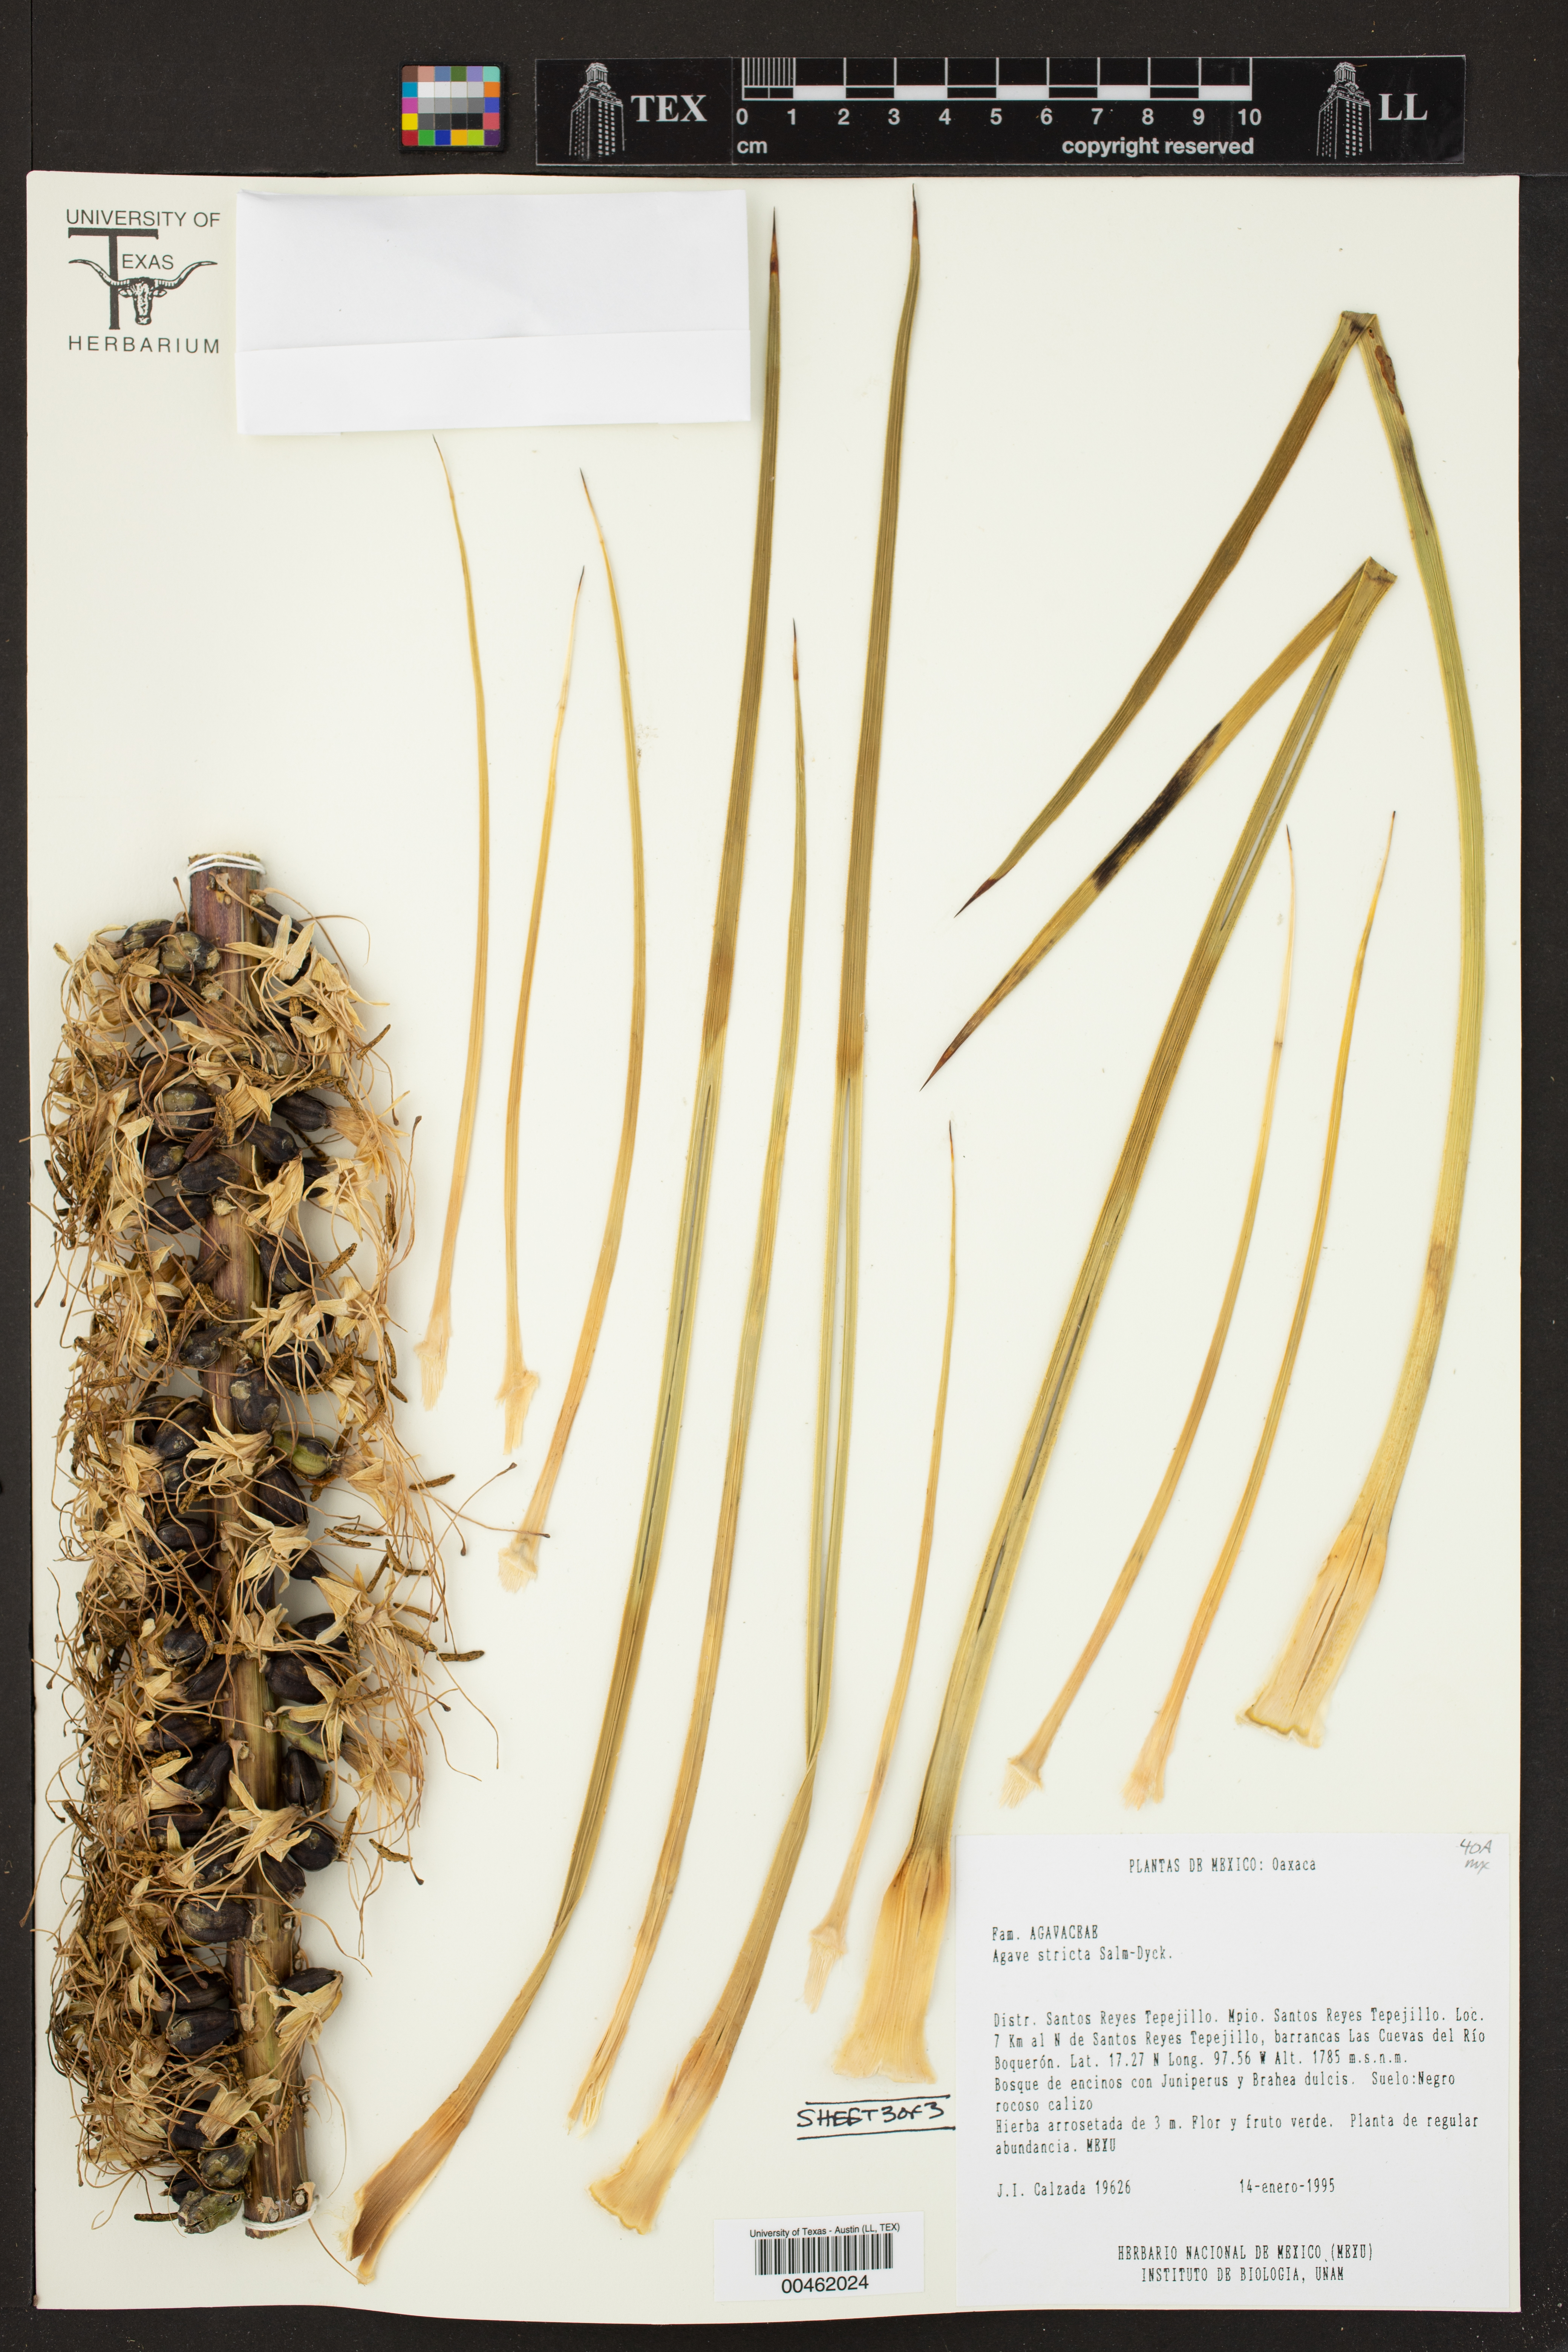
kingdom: Plantae
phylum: Tracheophyta
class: Liliopsida
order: Asparagales
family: Asparagaceae
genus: Agave
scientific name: Agave stricta
